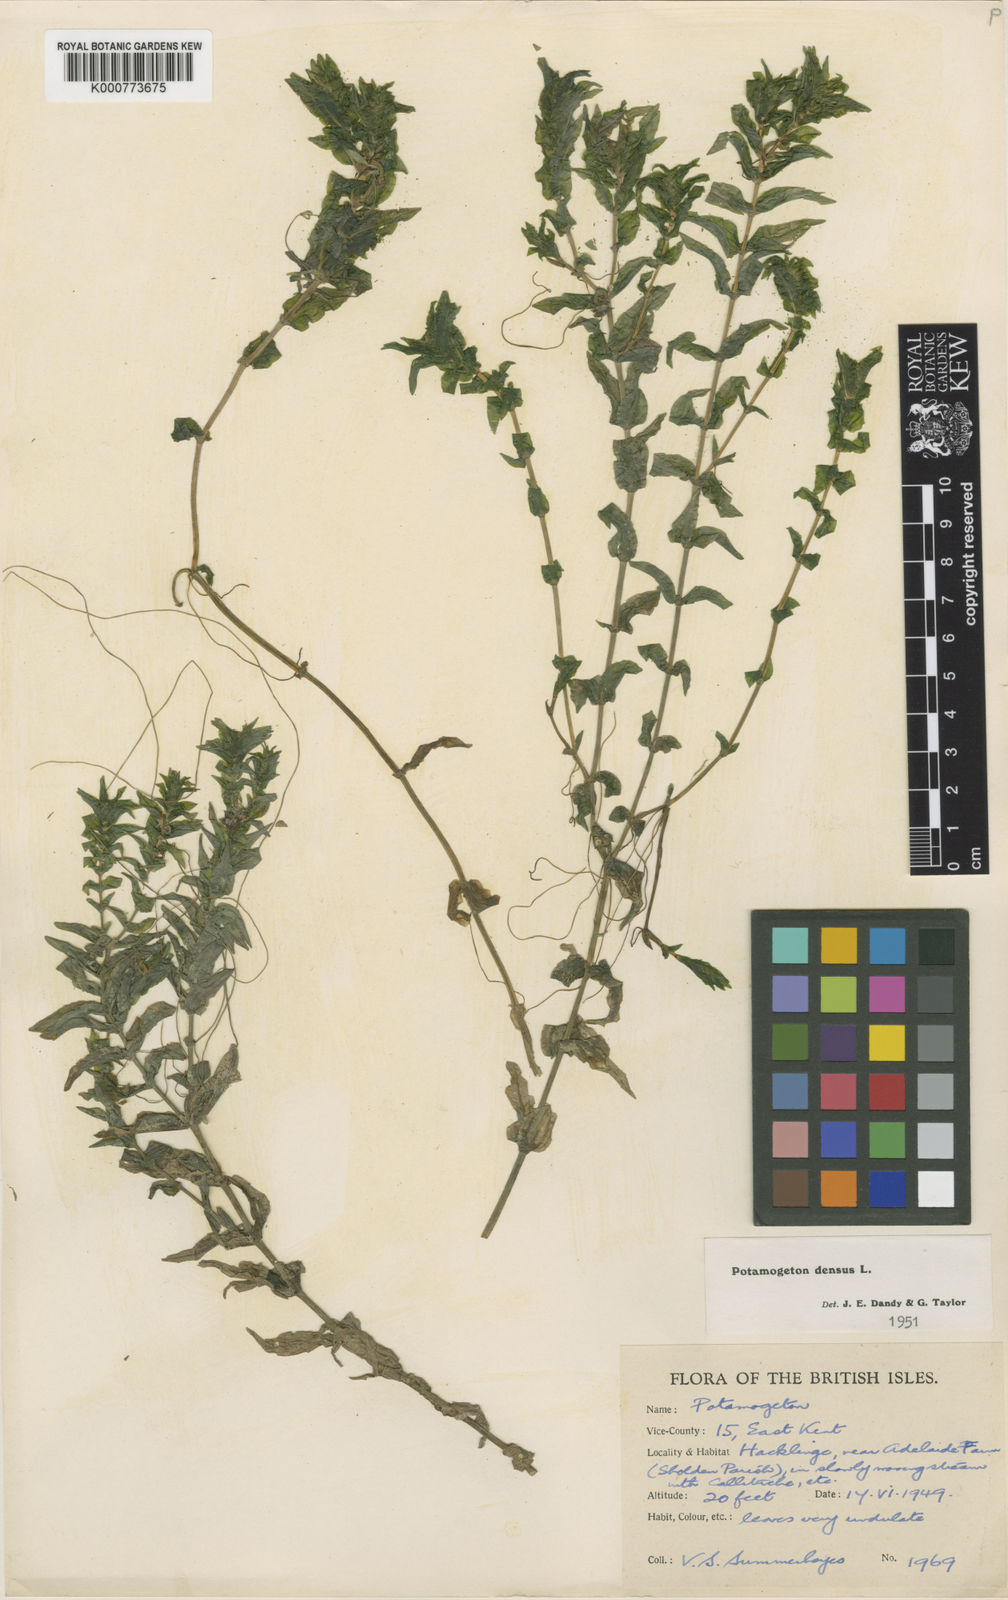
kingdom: Plantae
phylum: Tracheophyta
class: Liliopsida
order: Alismatales
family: Potamogetonaceae
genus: Groenlandia
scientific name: Groenlandia densa
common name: Opposite-leaved pondweed
